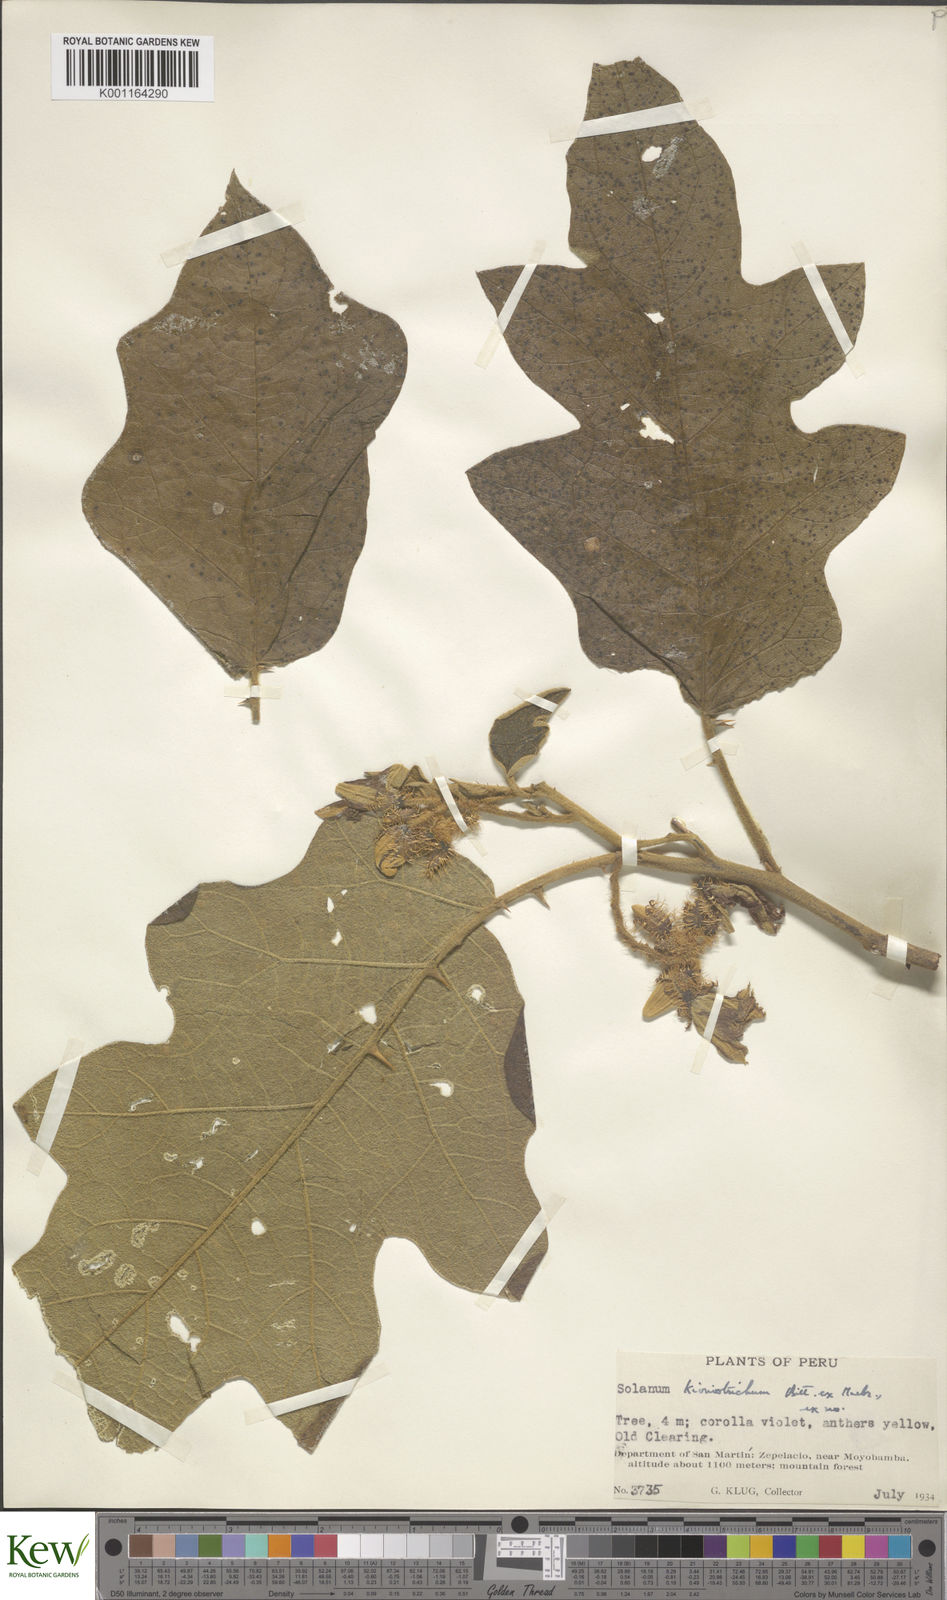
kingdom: Plantae
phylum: Tracheophyta
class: Magnoliopsida
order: Solanales
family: Solanaceae
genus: Solanum
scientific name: Solanum kioniotrichum
